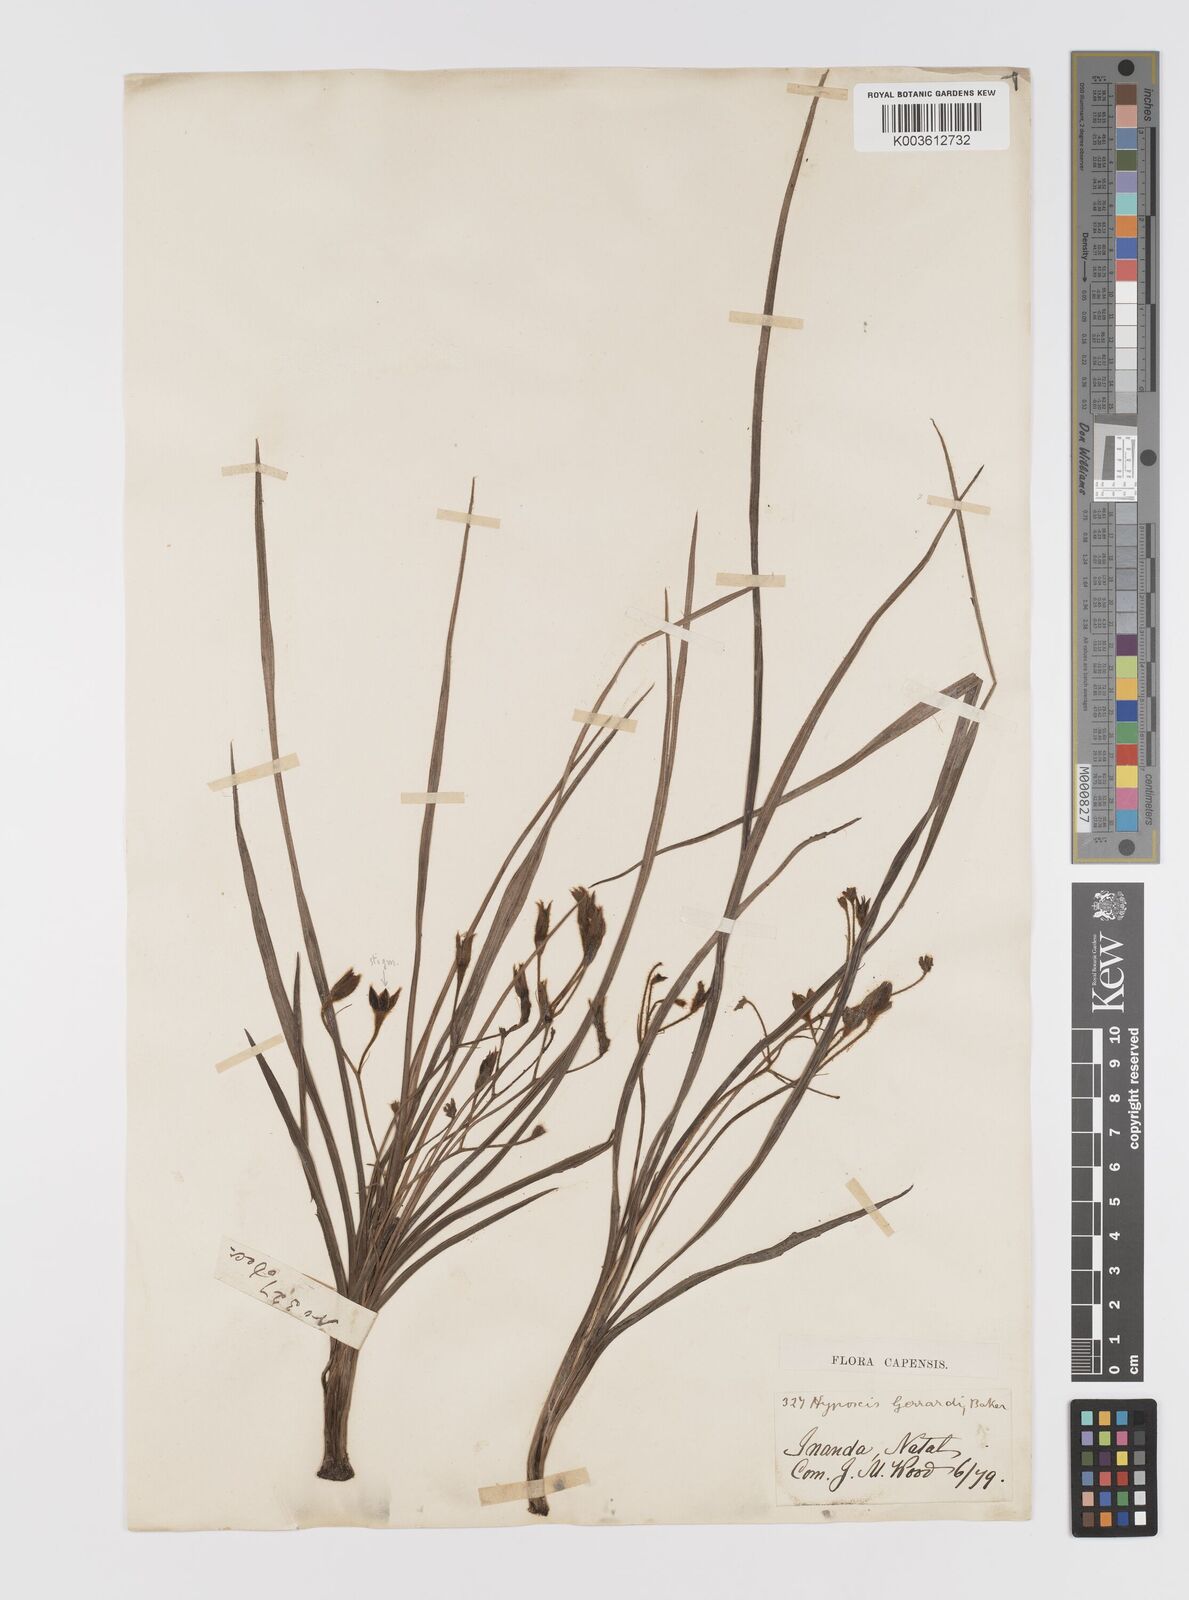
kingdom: Plantae
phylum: Tracheophyta
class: Liliopsida
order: Asparagales
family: Hypoxidaceae
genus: Hypoxis
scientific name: Hypoxis gerrardii
